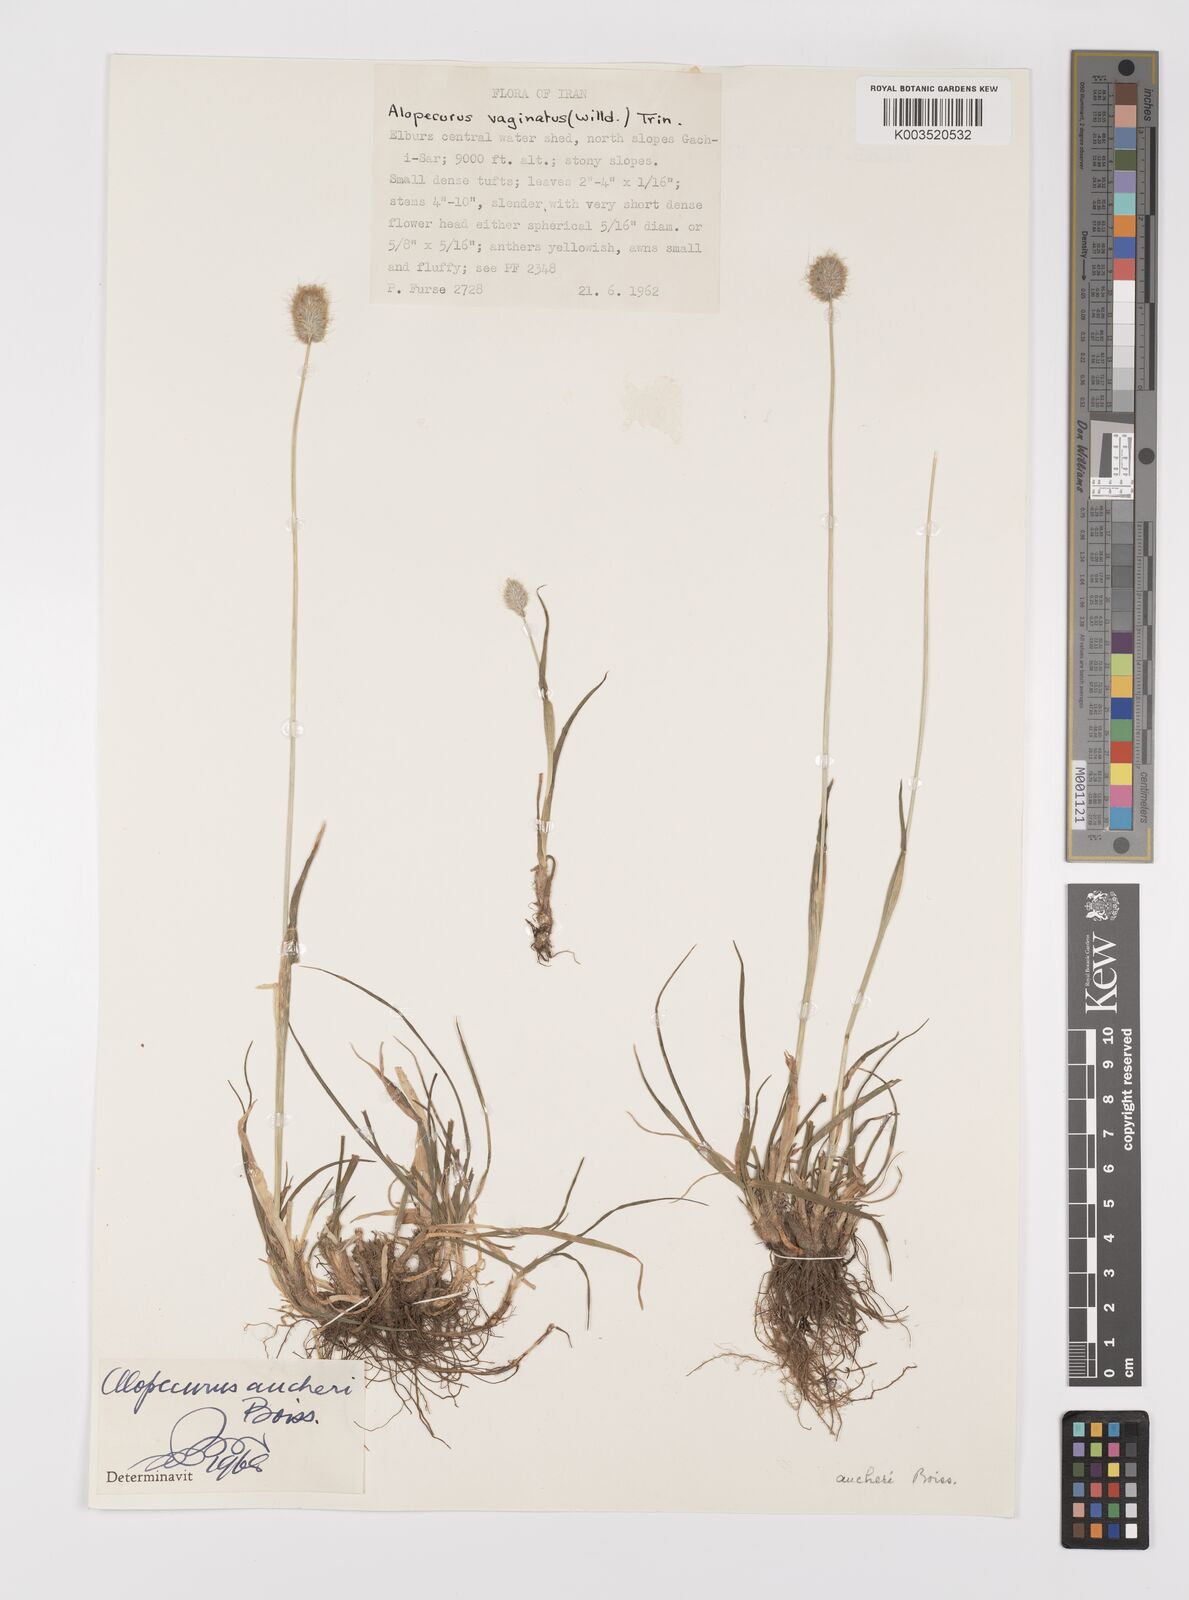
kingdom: Plantae
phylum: Tracheophyta
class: Liliopsida
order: Poales
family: Poaceae
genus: Alopecurus
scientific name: Alopecurus aucheri
